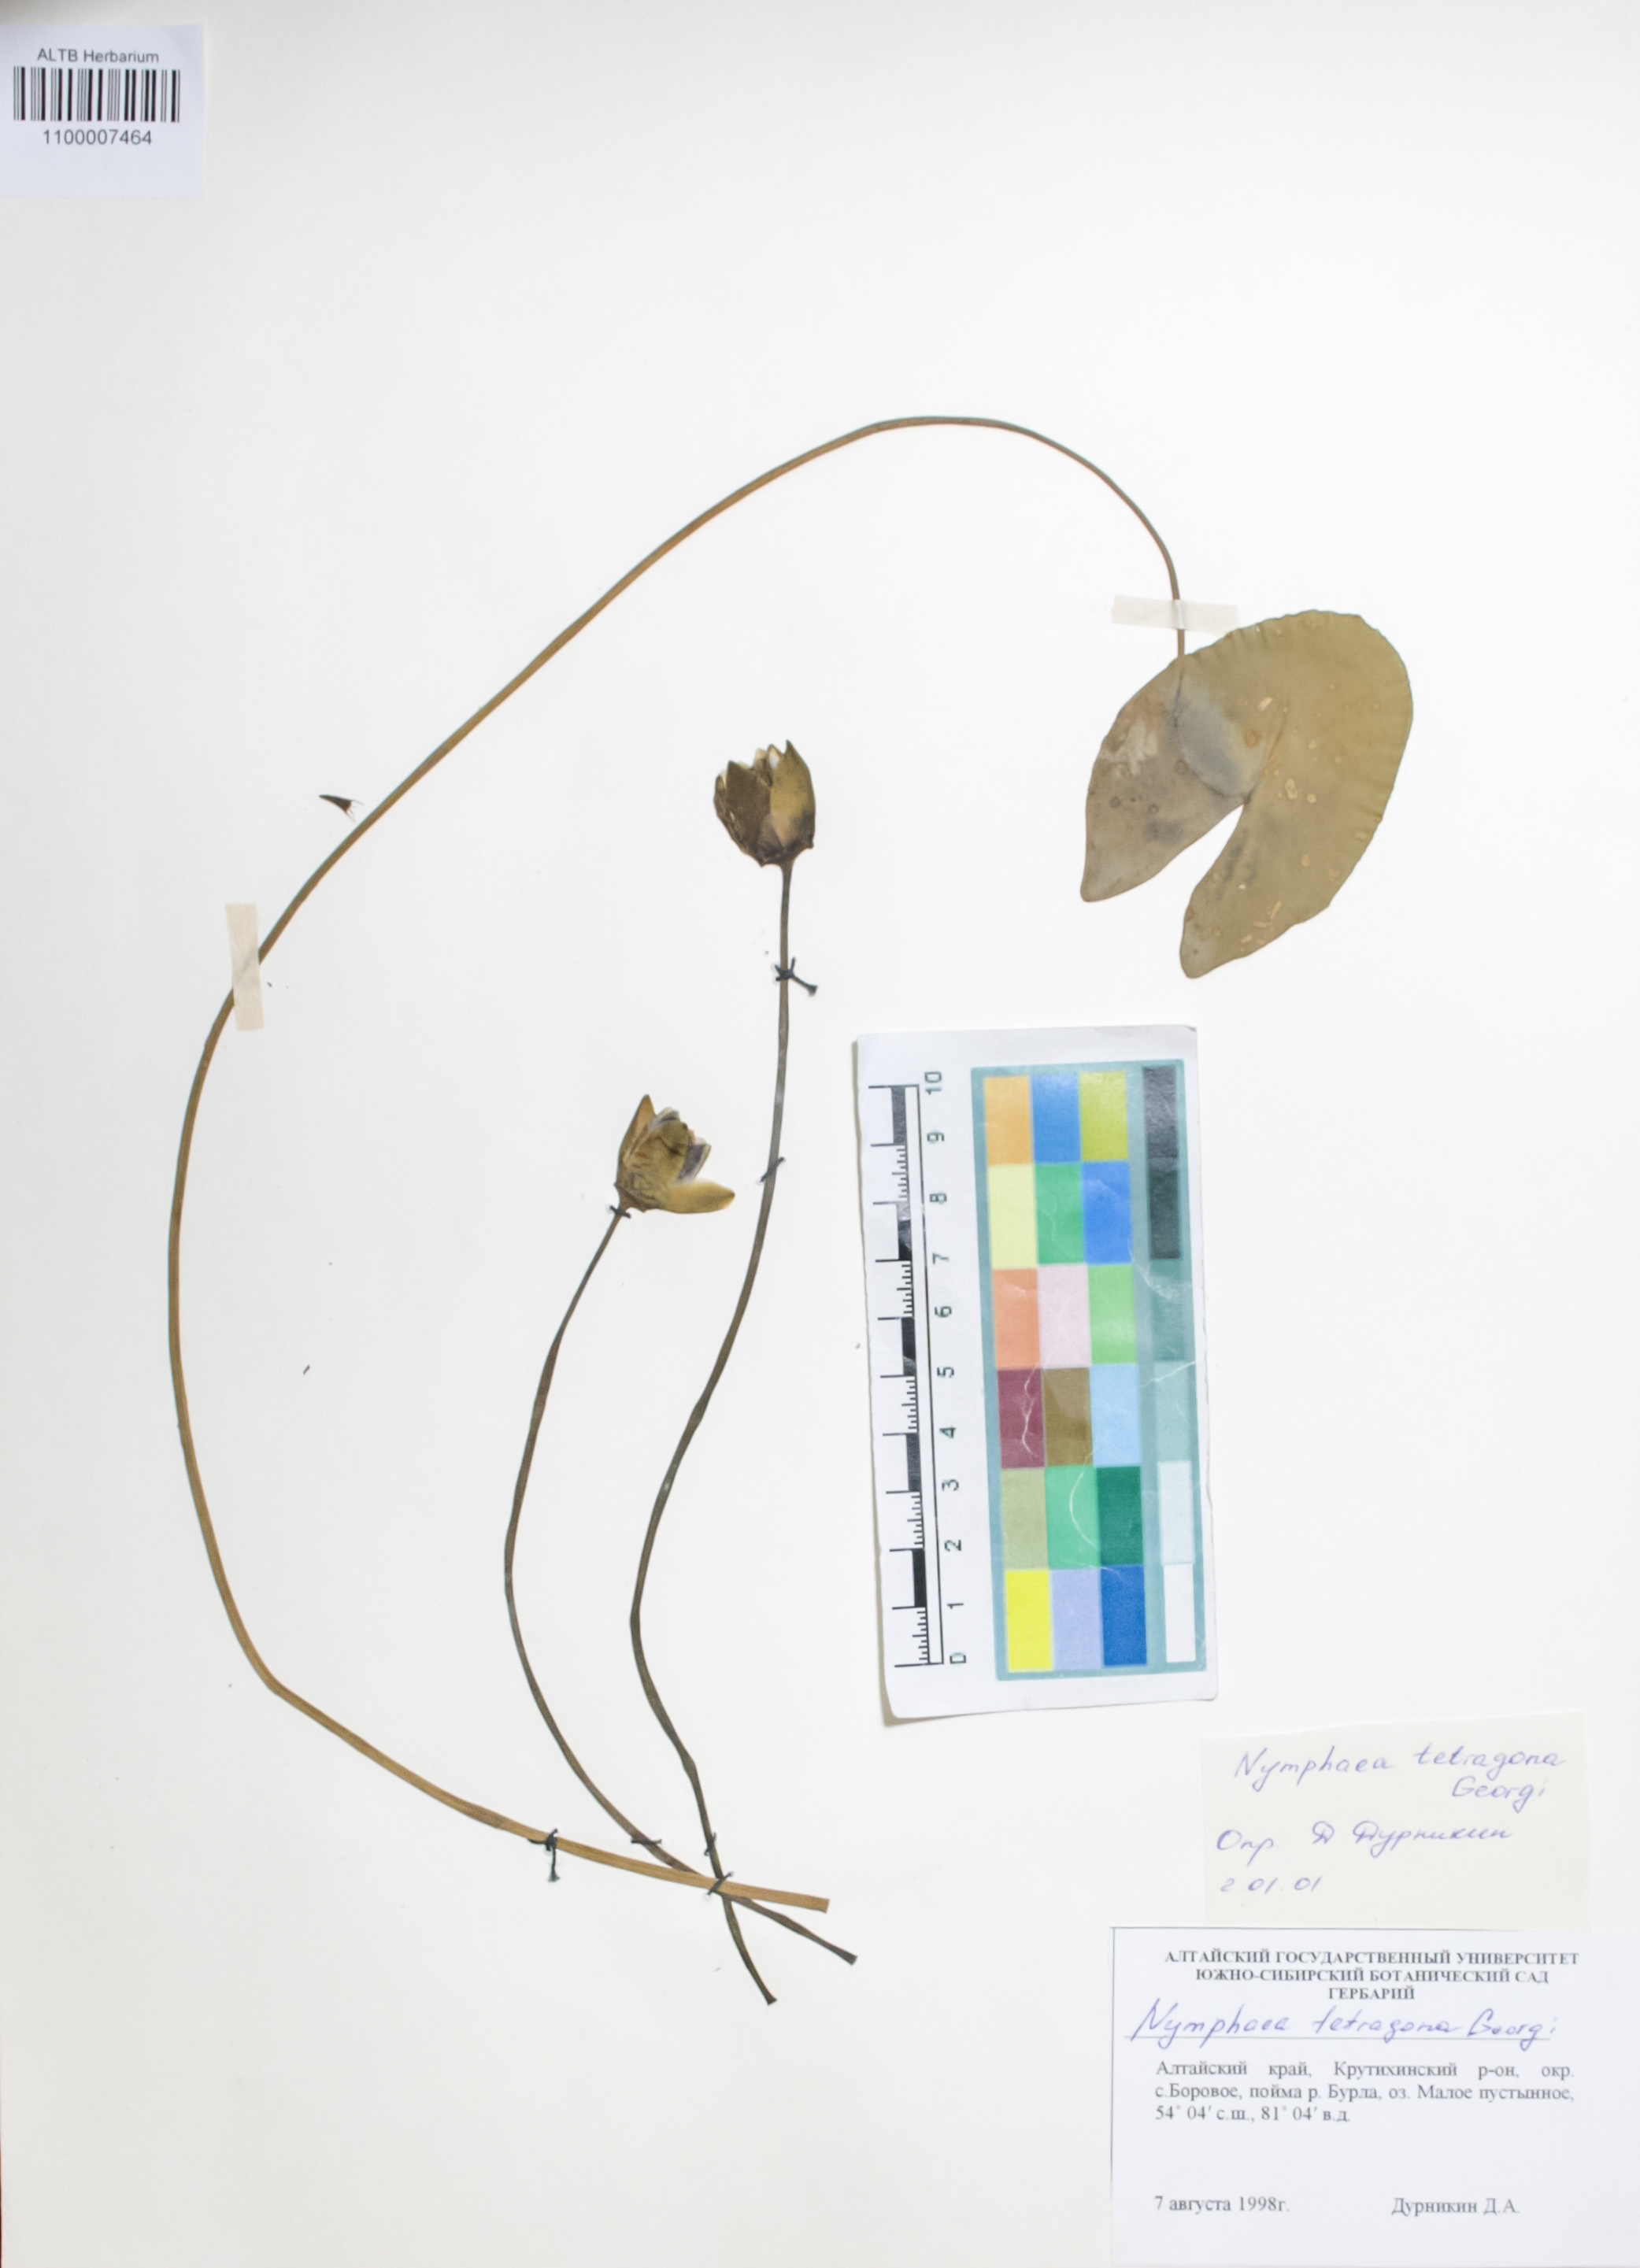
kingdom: Plantae
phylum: Tracheophyta
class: Magnoliopsida
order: Nymphaeales
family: Nymphaeaceae
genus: Nymphaea
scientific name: Nymphaea tetragona
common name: Pygmy water-lily
